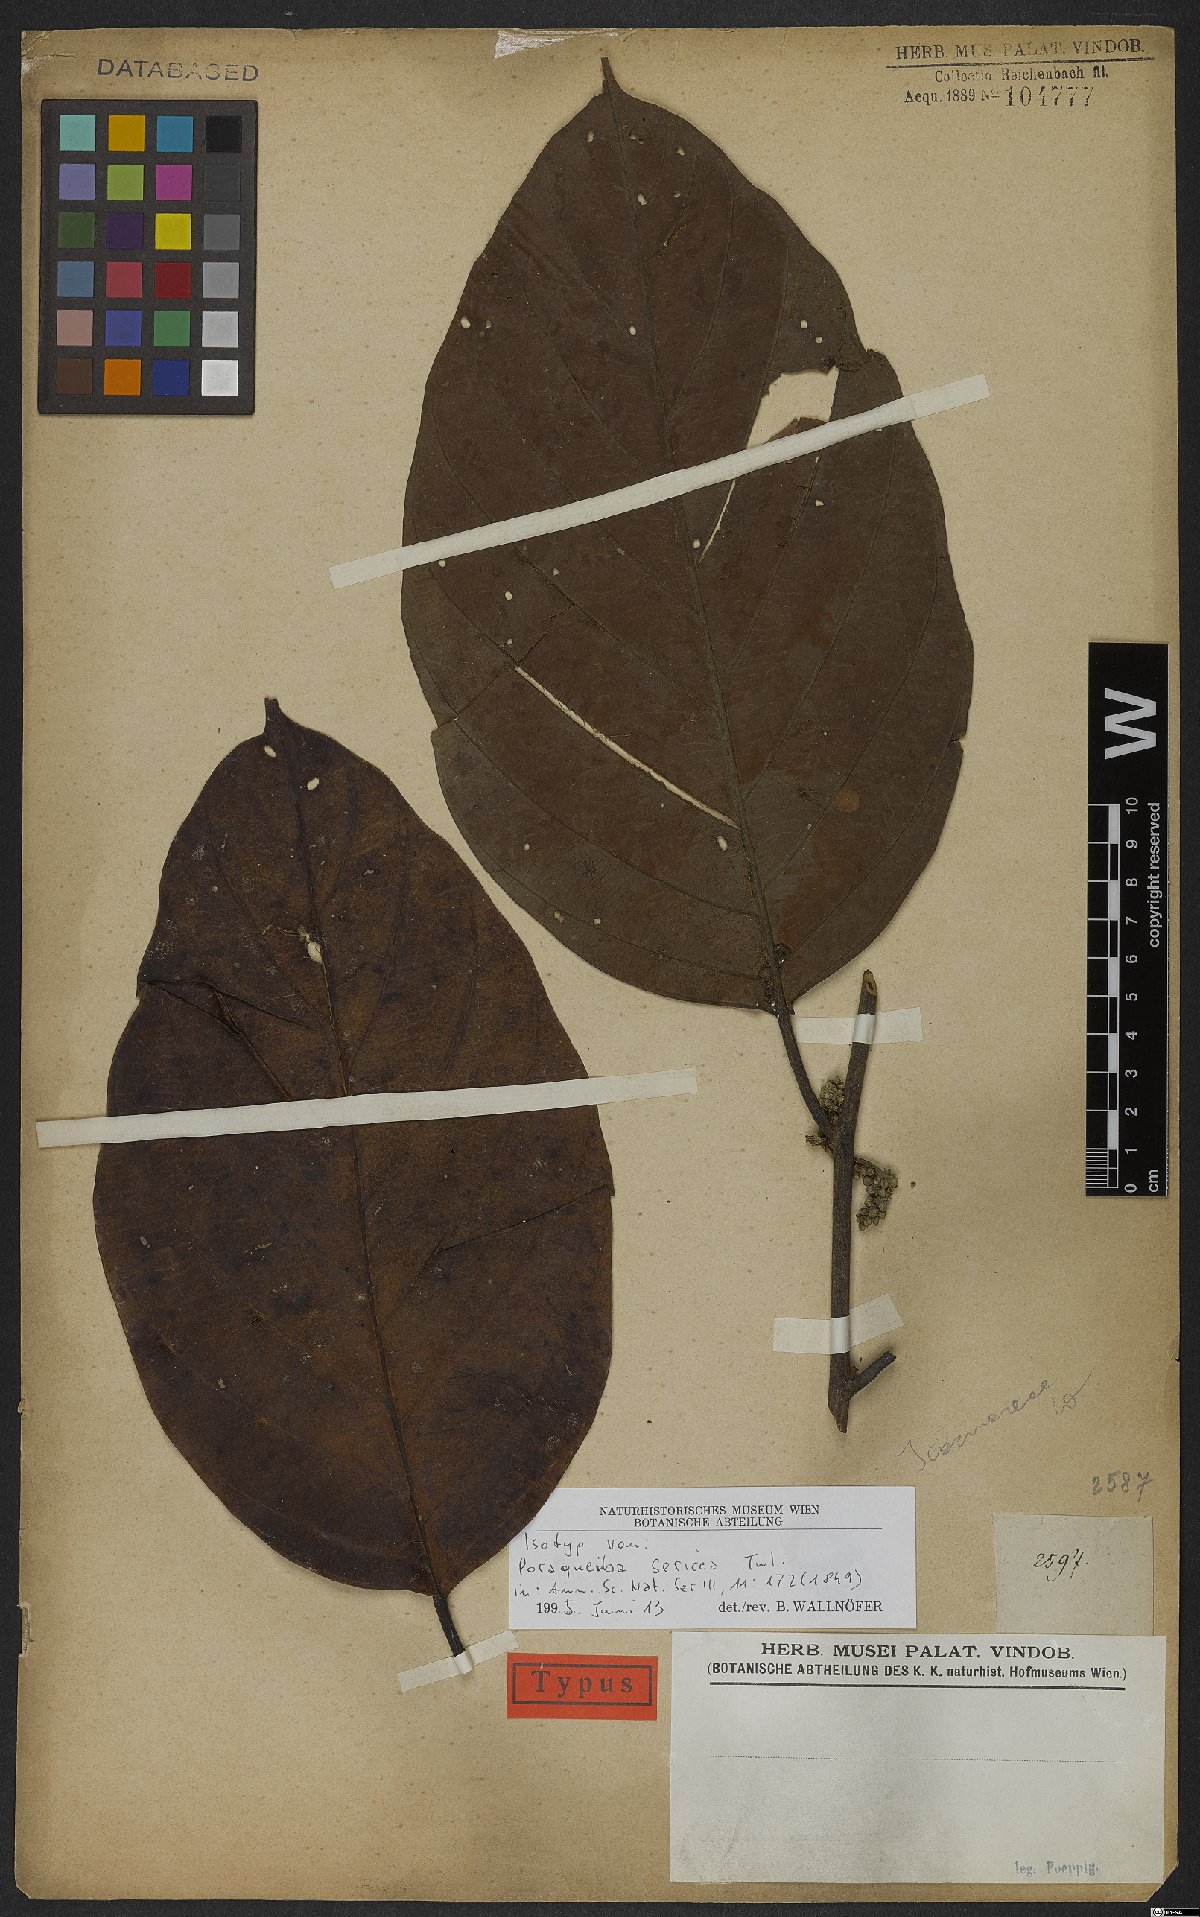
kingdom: Plantae
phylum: Tracheophyta
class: Magnoliopsida
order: Metteniusales
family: Metteniusaceae
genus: Poraqueiba
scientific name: Poraqueiba sericea
